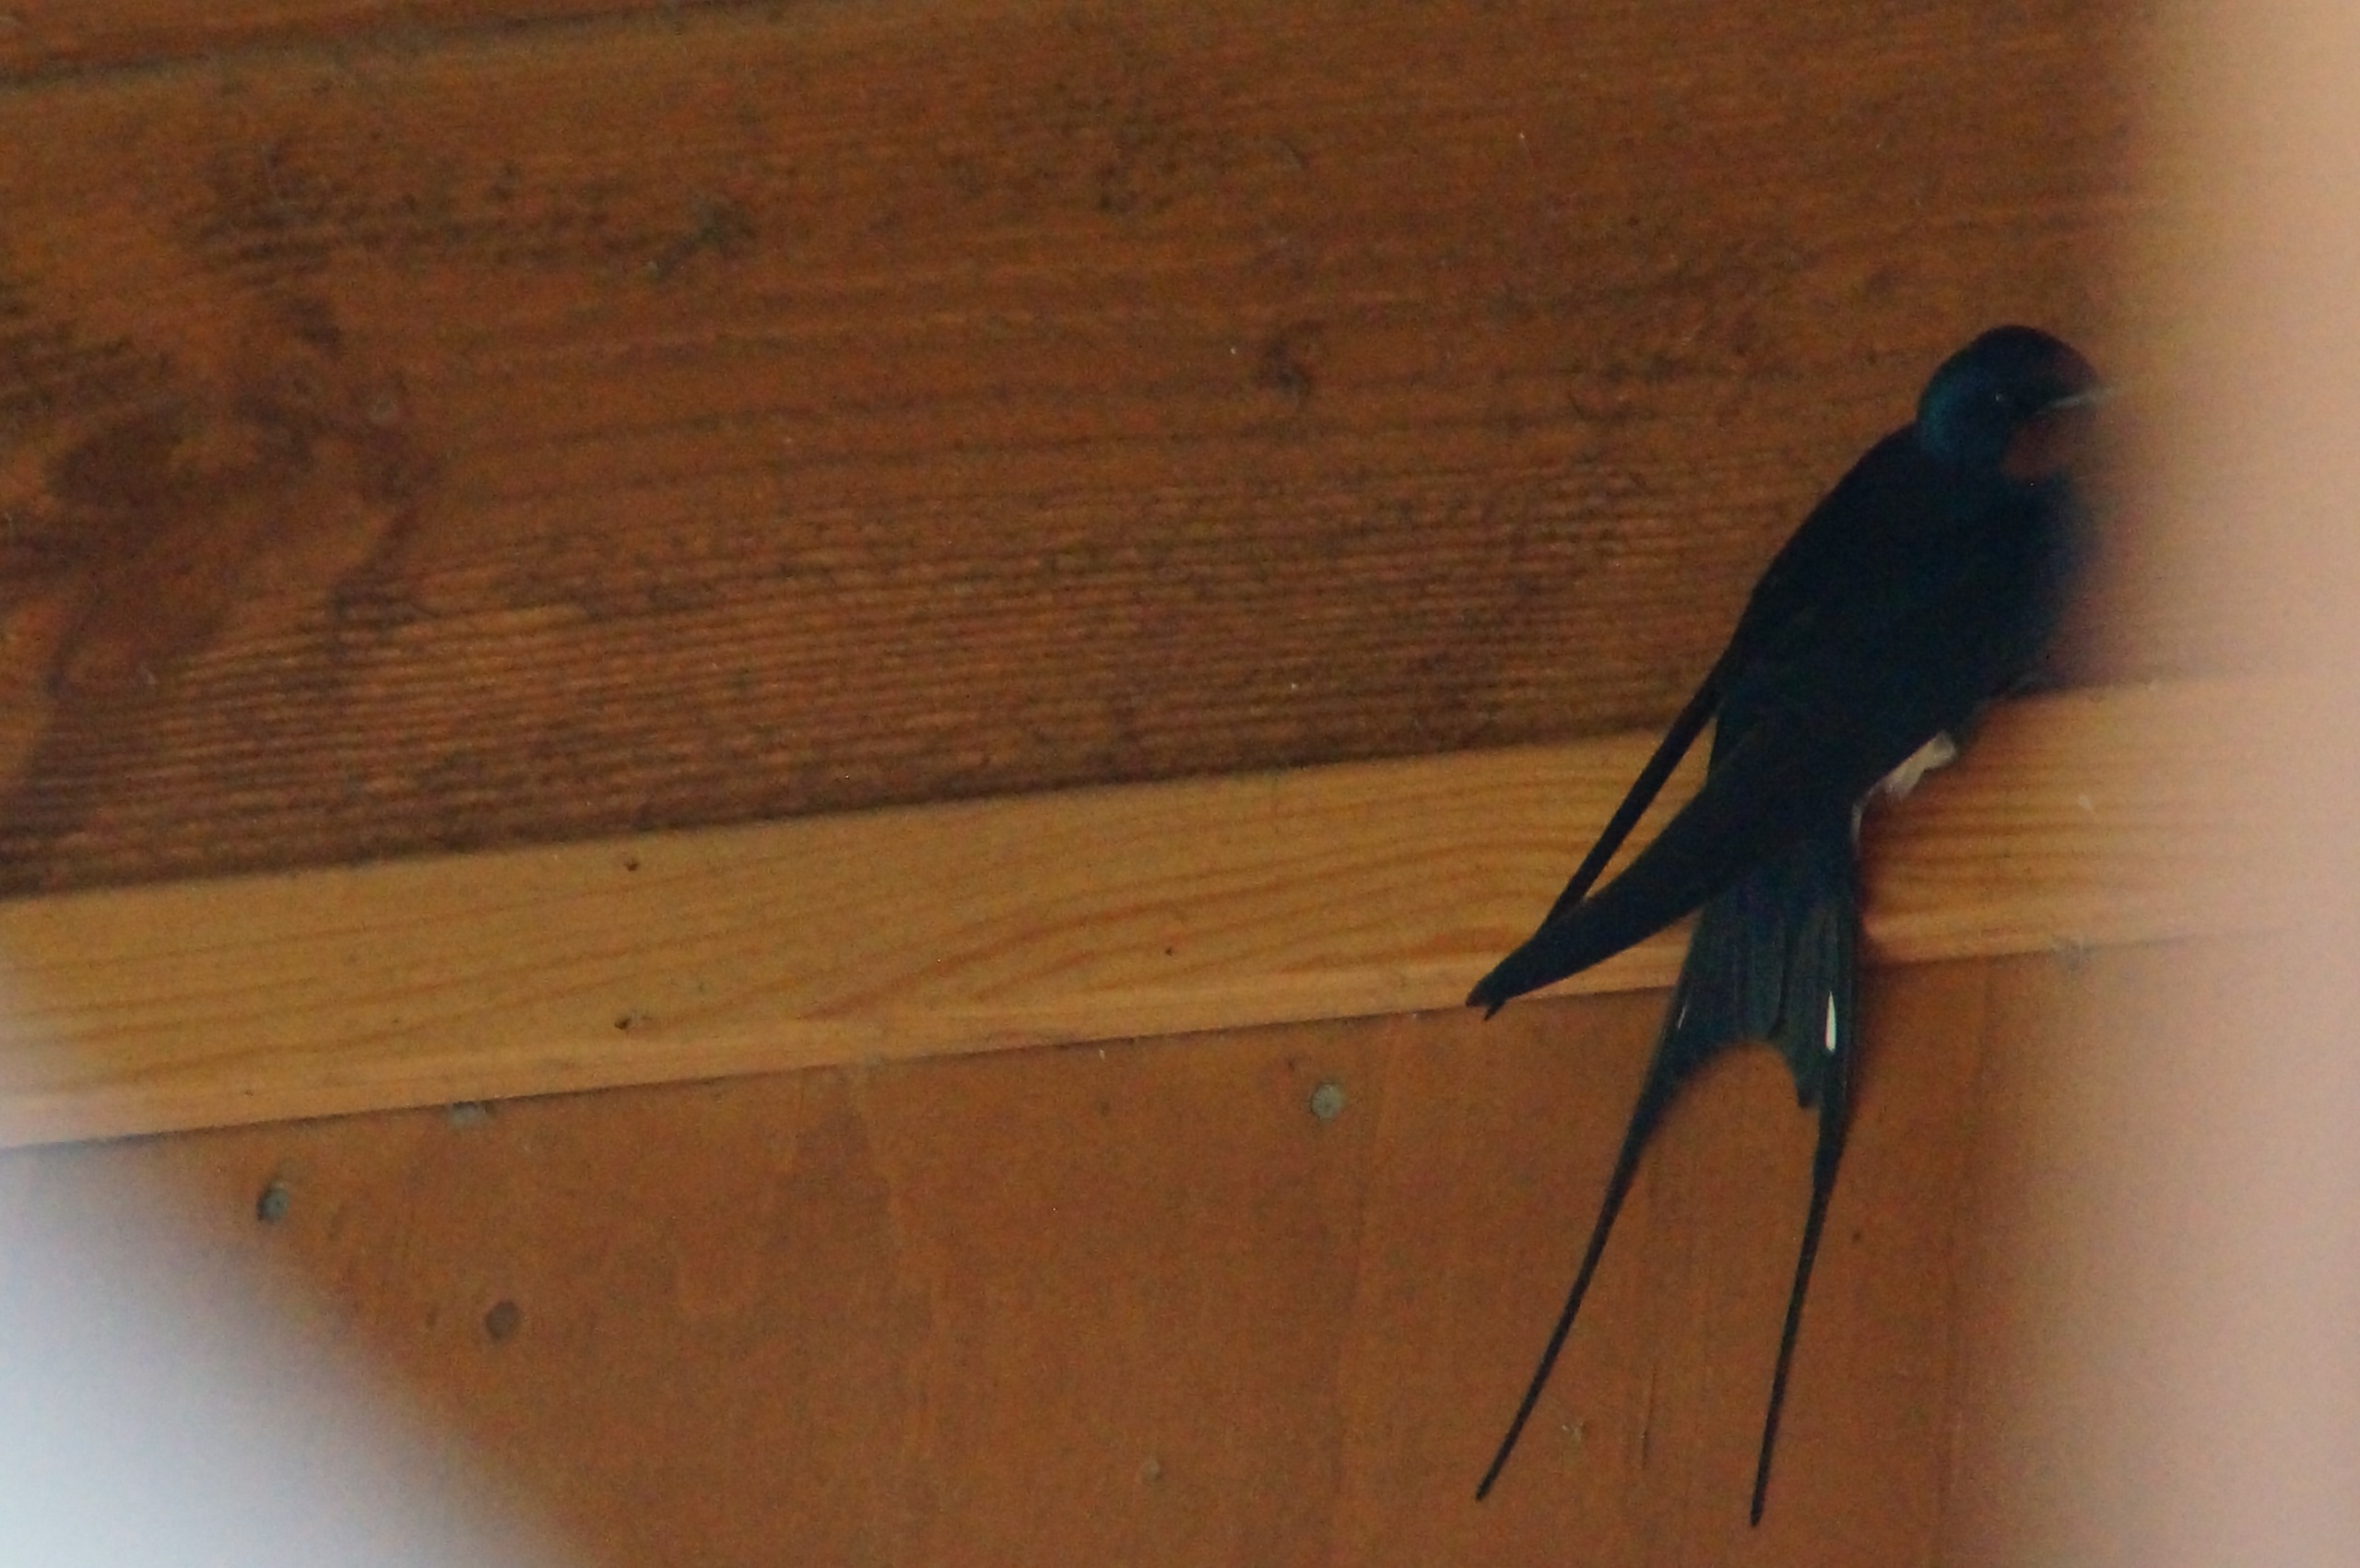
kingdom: Animalia
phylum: Chordata
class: Aves
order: Passeriformes
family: Hirundinidae
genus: Hirundo
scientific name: Hirundo rustica
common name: Landsvale
